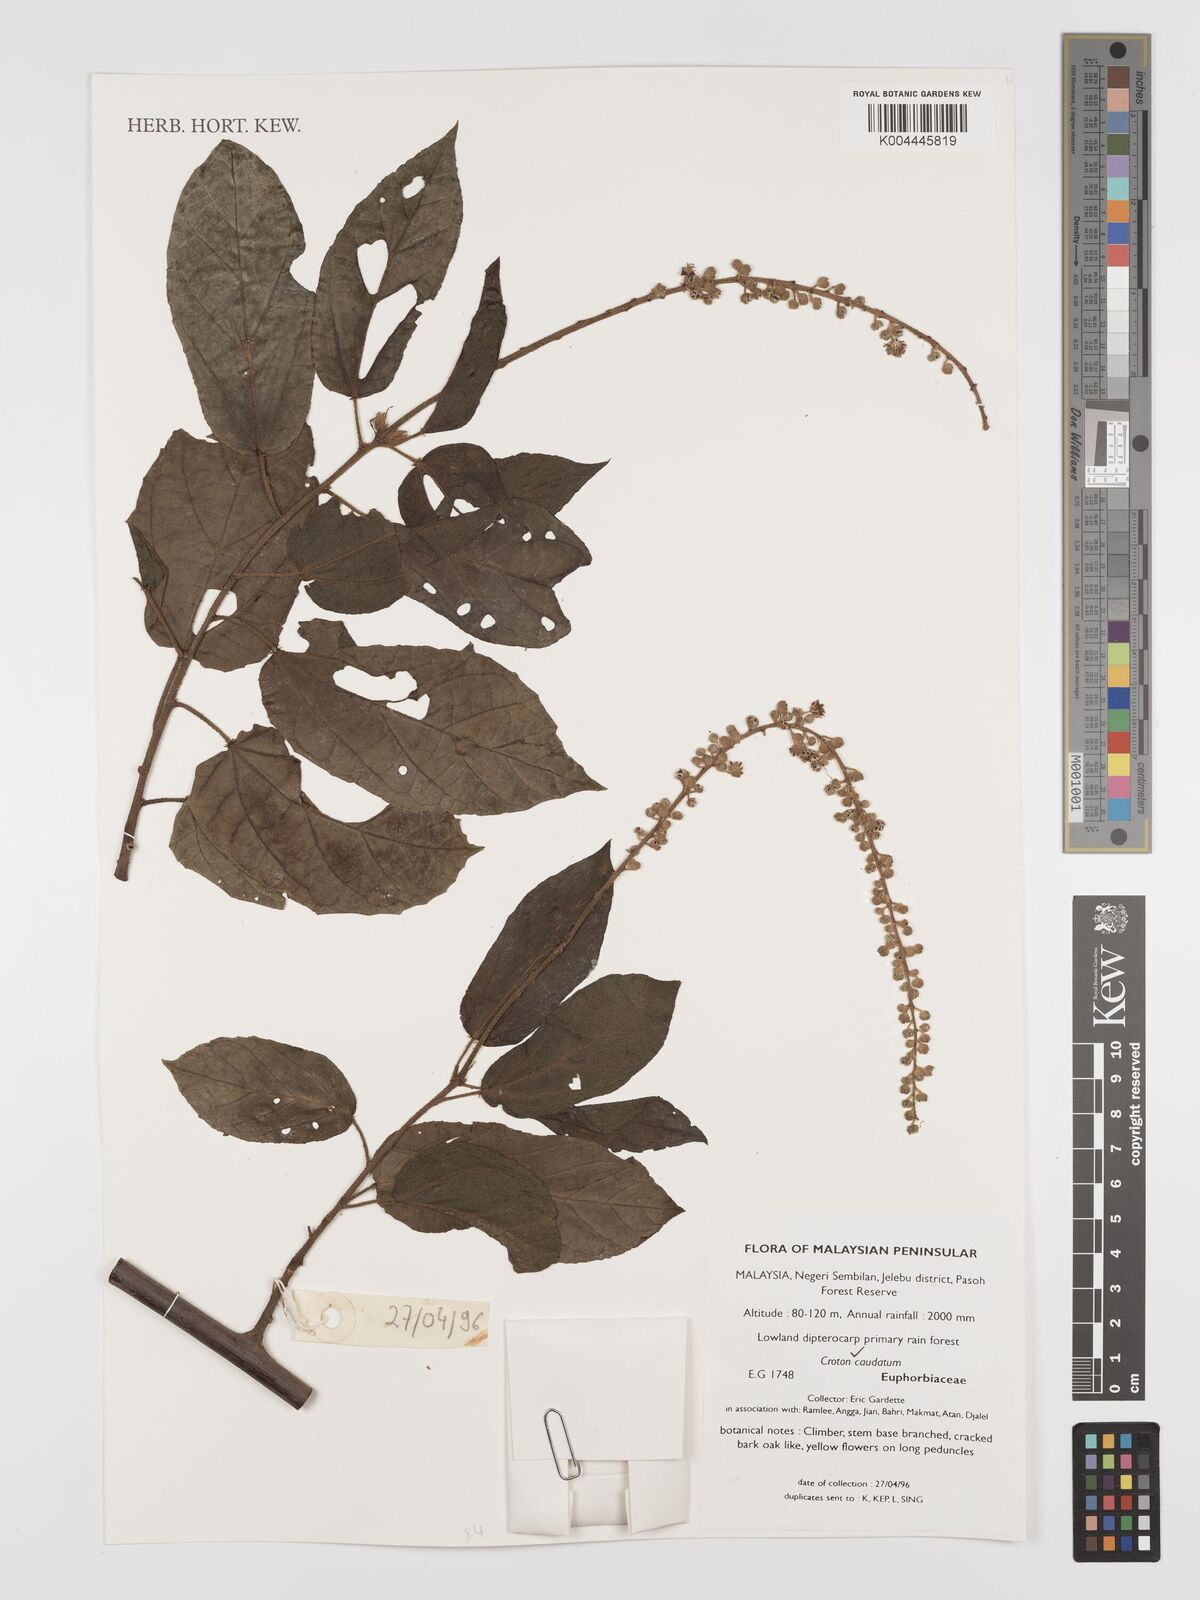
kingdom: Plantae
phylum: Tracheophyta
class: Magnoliopsida
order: Malpighiales
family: Euphorbiaceae
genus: Croton
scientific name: Croton caudatus
